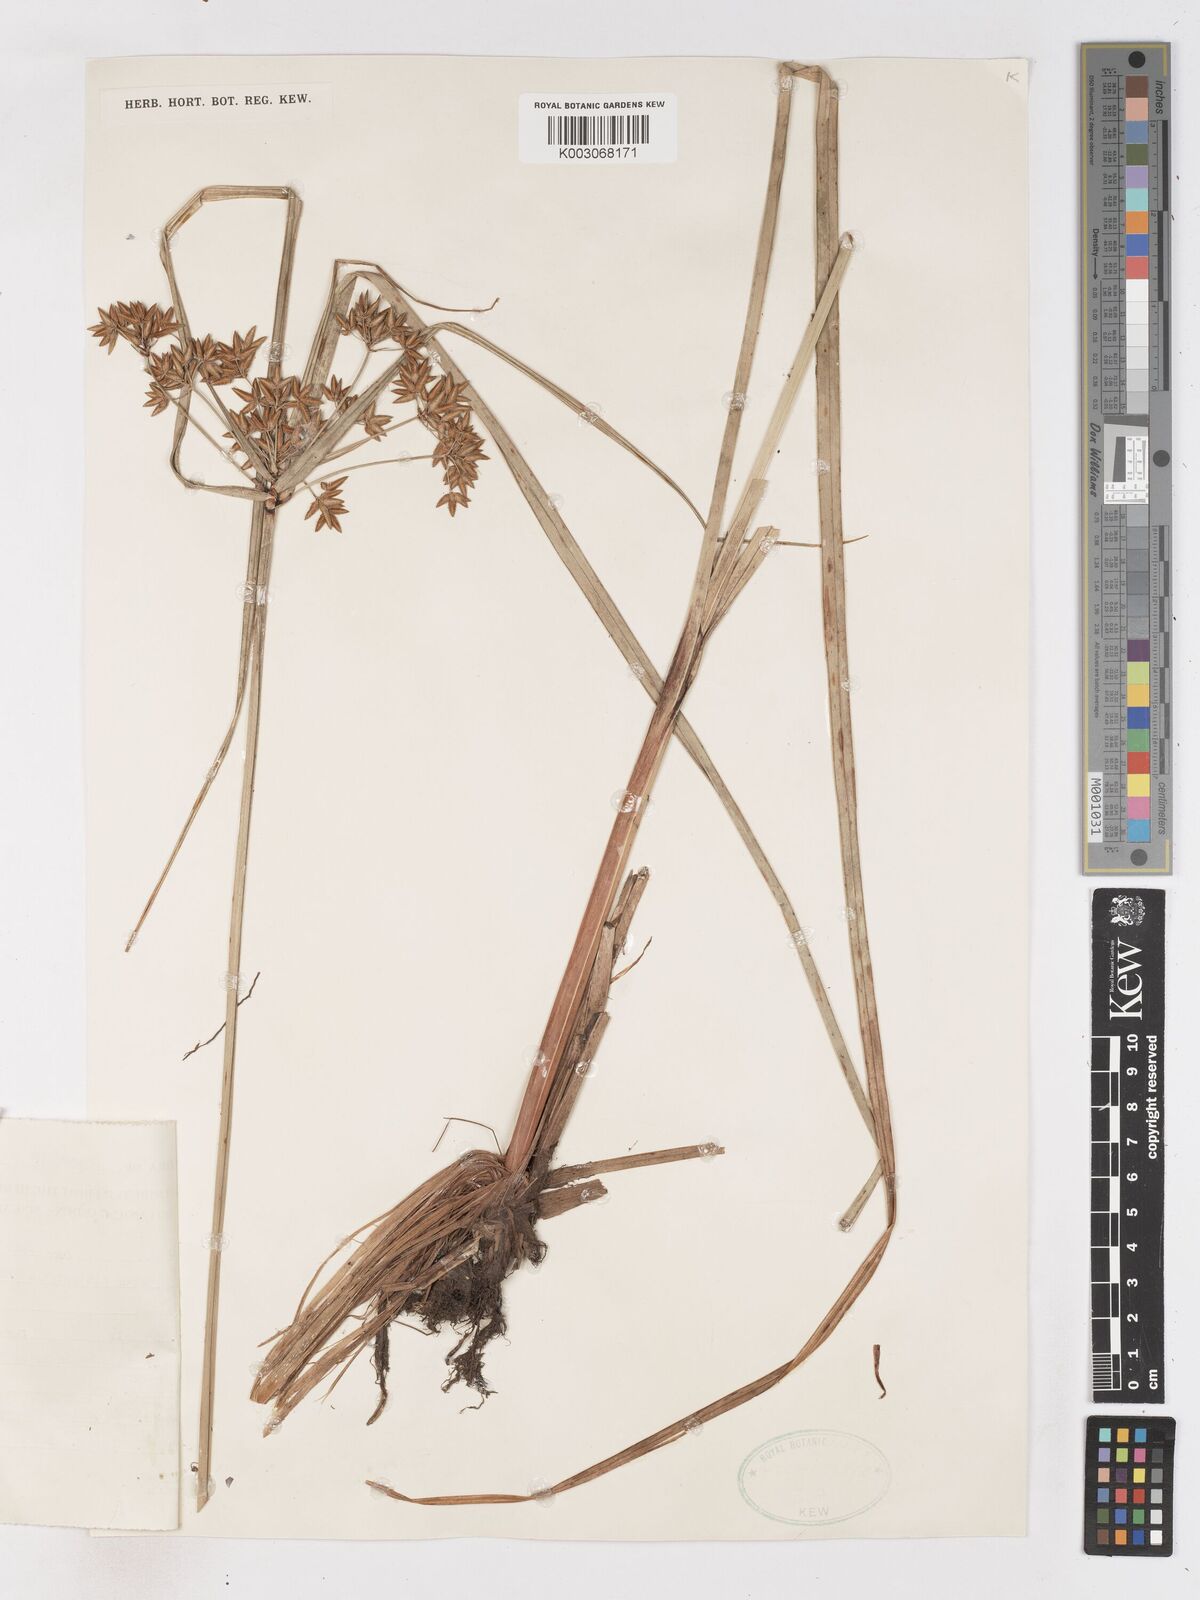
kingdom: Plantae
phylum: Tracheophyta
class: Liliopsida
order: Poales
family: Cyperaceae
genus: Cyperus
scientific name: Cyperus platystylis
